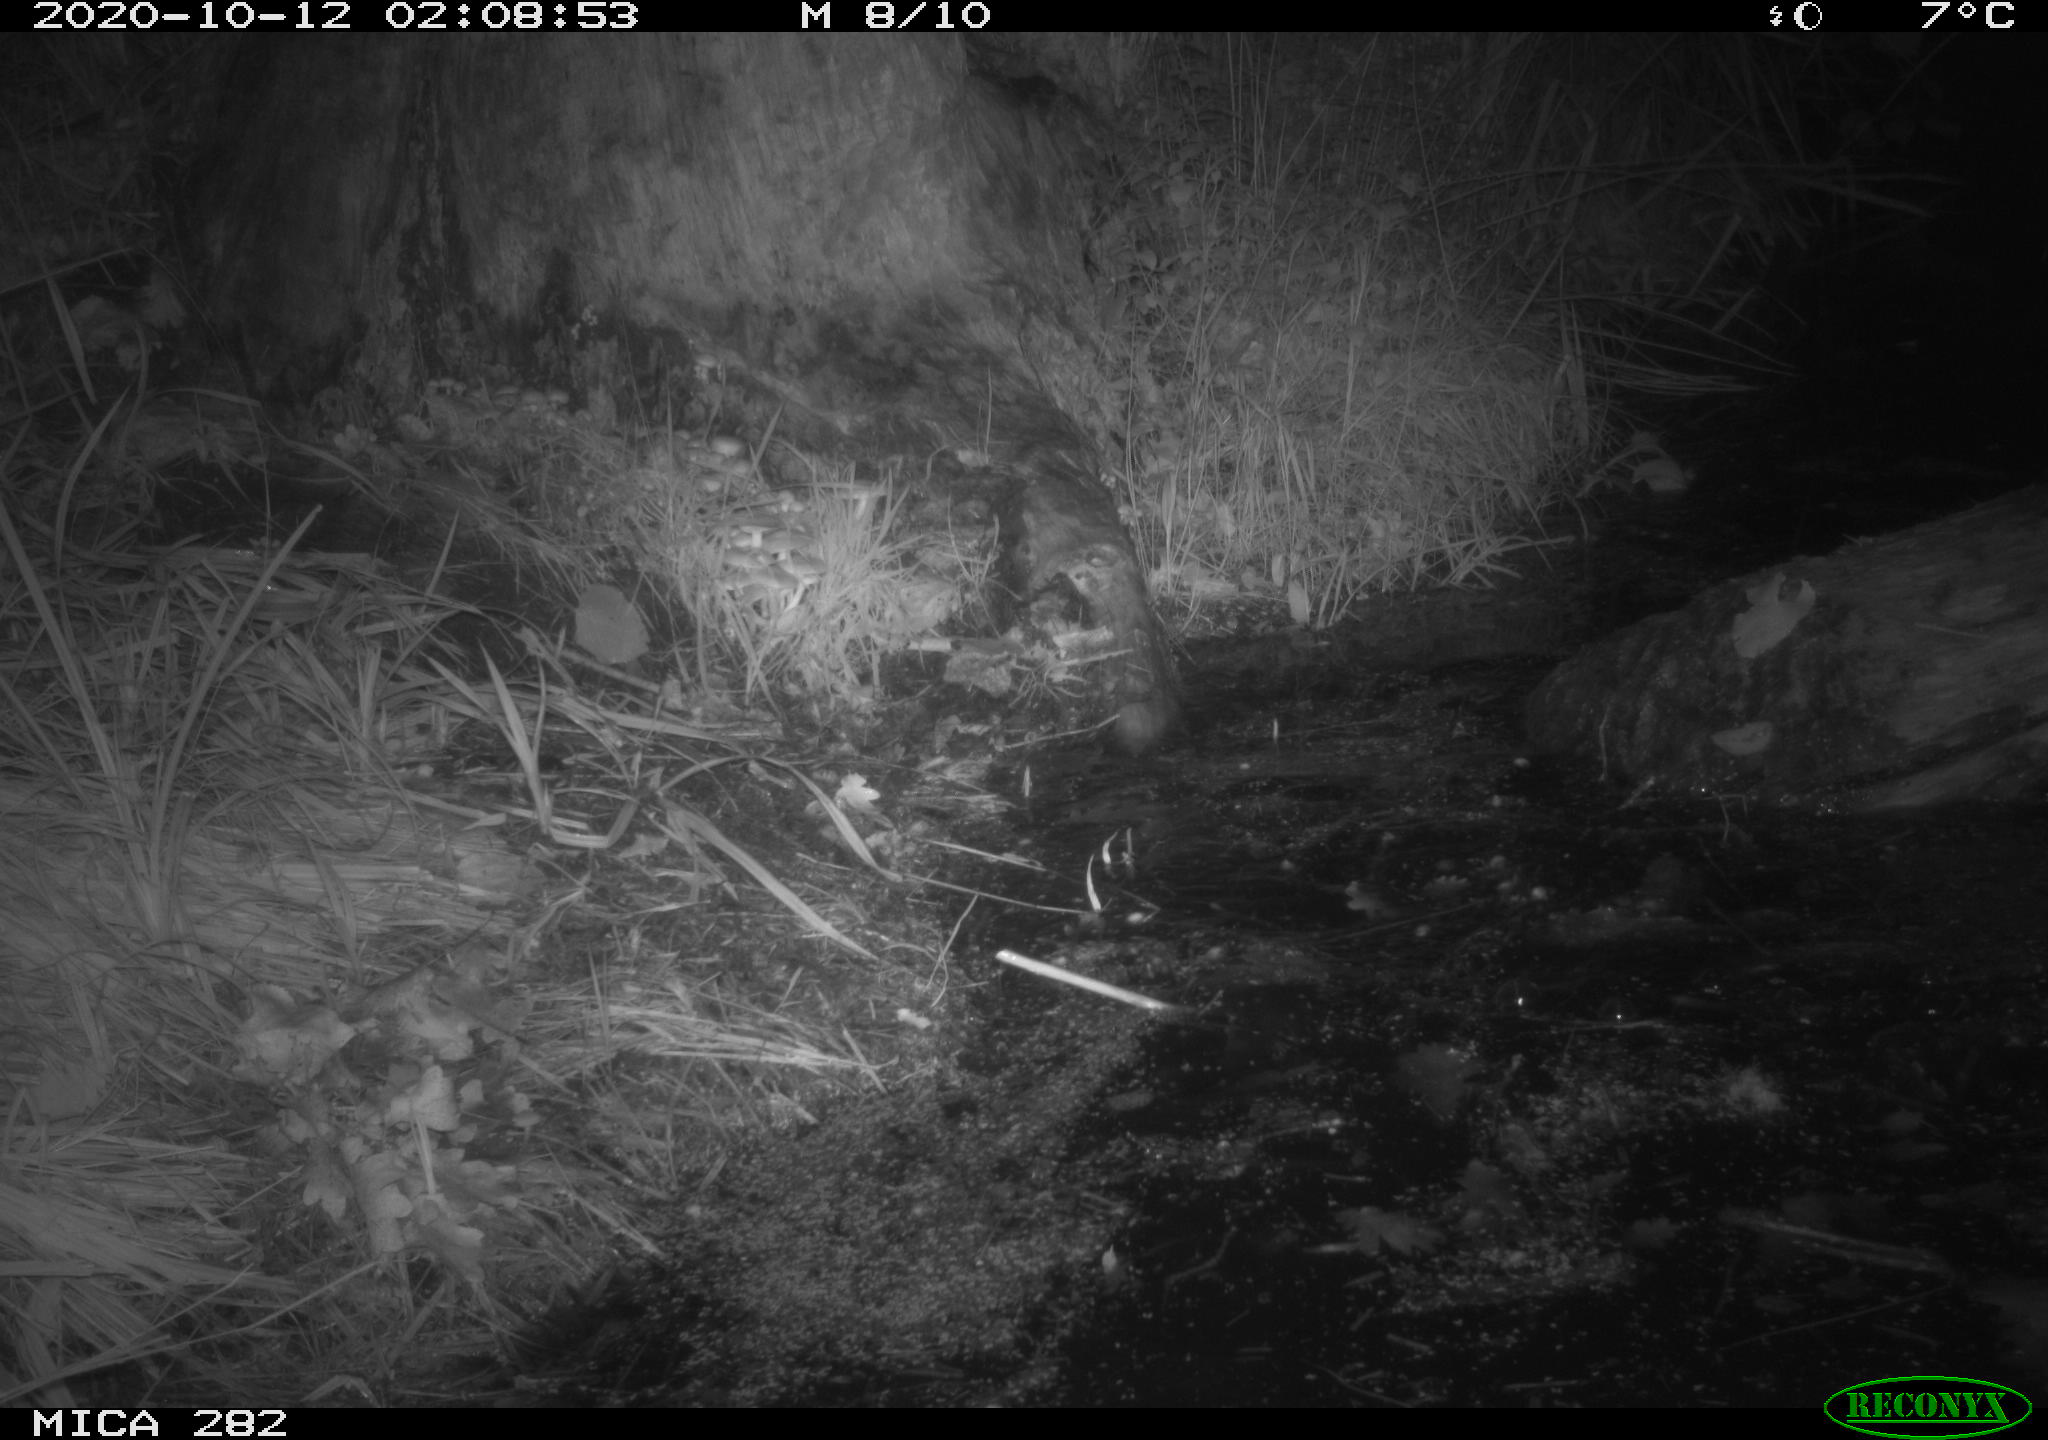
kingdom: Animalia
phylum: Chordata
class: Mammalia
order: Rodentia
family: Castoridae
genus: Castor
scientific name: Castor fiber
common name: Eurasian beaver
